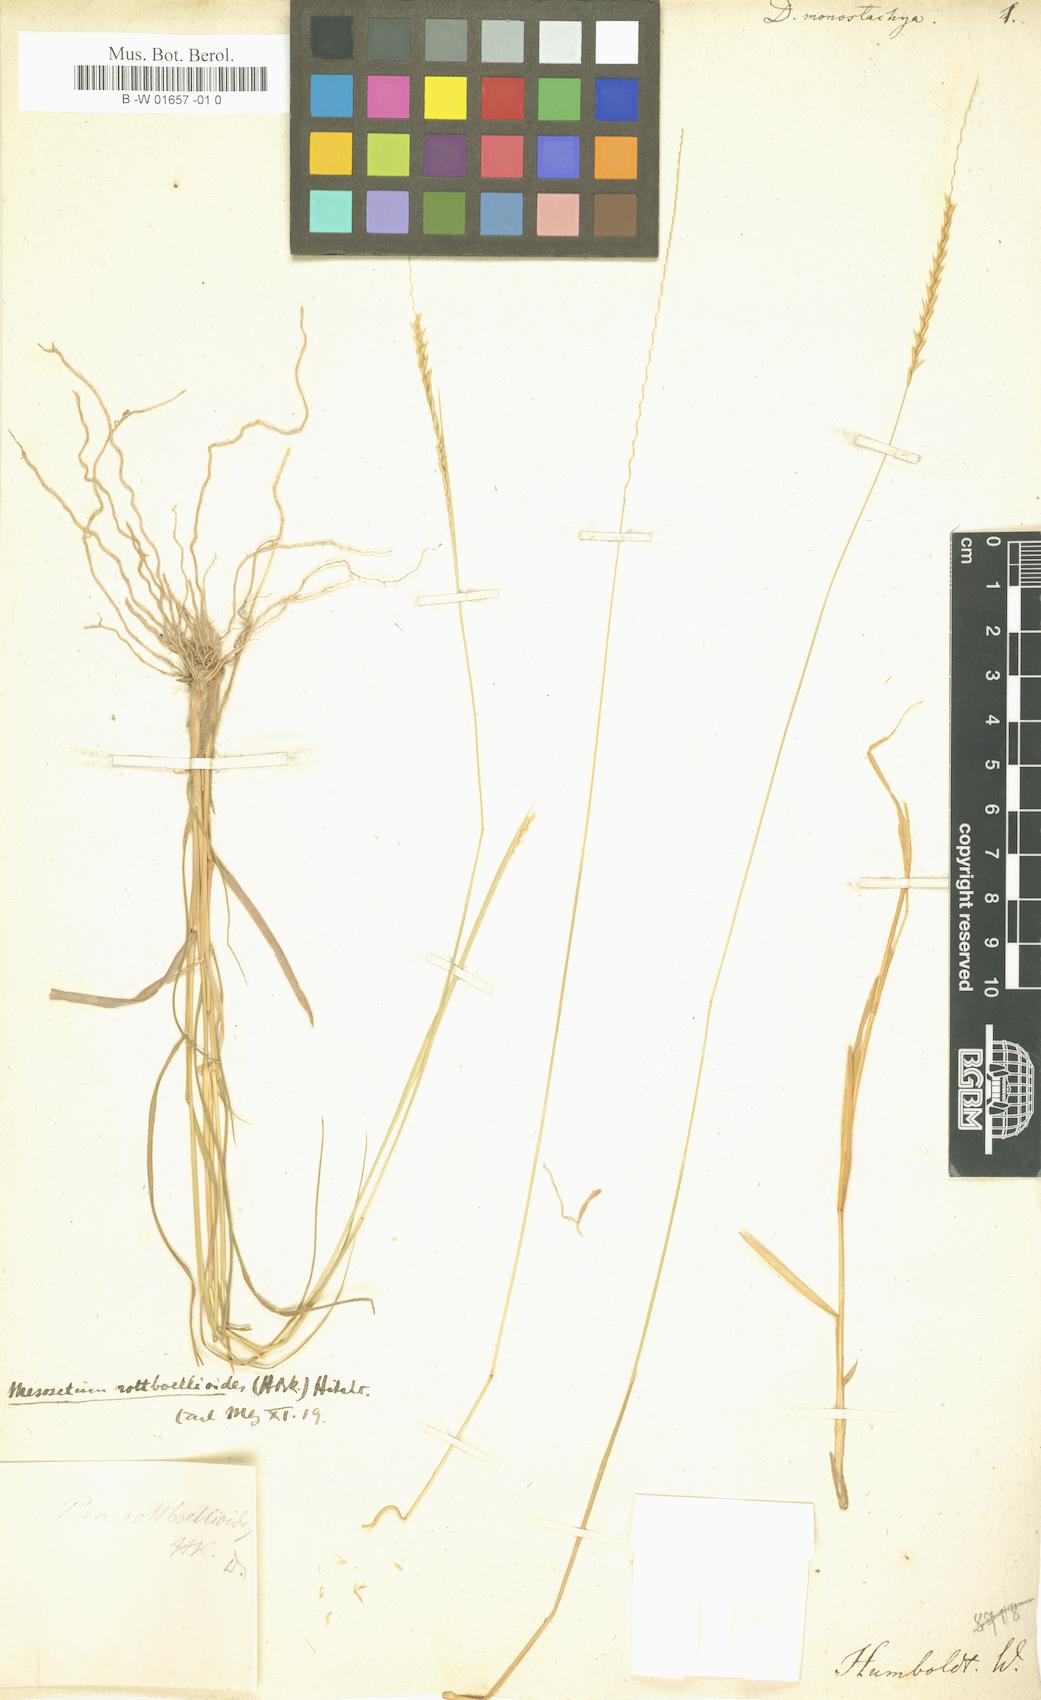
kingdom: Plantae
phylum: Tracheophyta
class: Liliopsida
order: Poales
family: Poaceae
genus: Mesosetum
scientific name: Mesosetum rottboellioides
